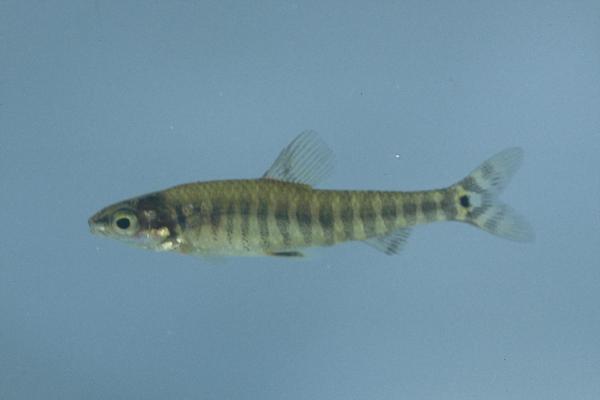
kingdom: Animalia
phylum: Chordata
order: Characiformes
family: Distichodontidae
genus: Nannocharax
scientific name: Nannocharax machadoi
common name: Dwarf citharine
